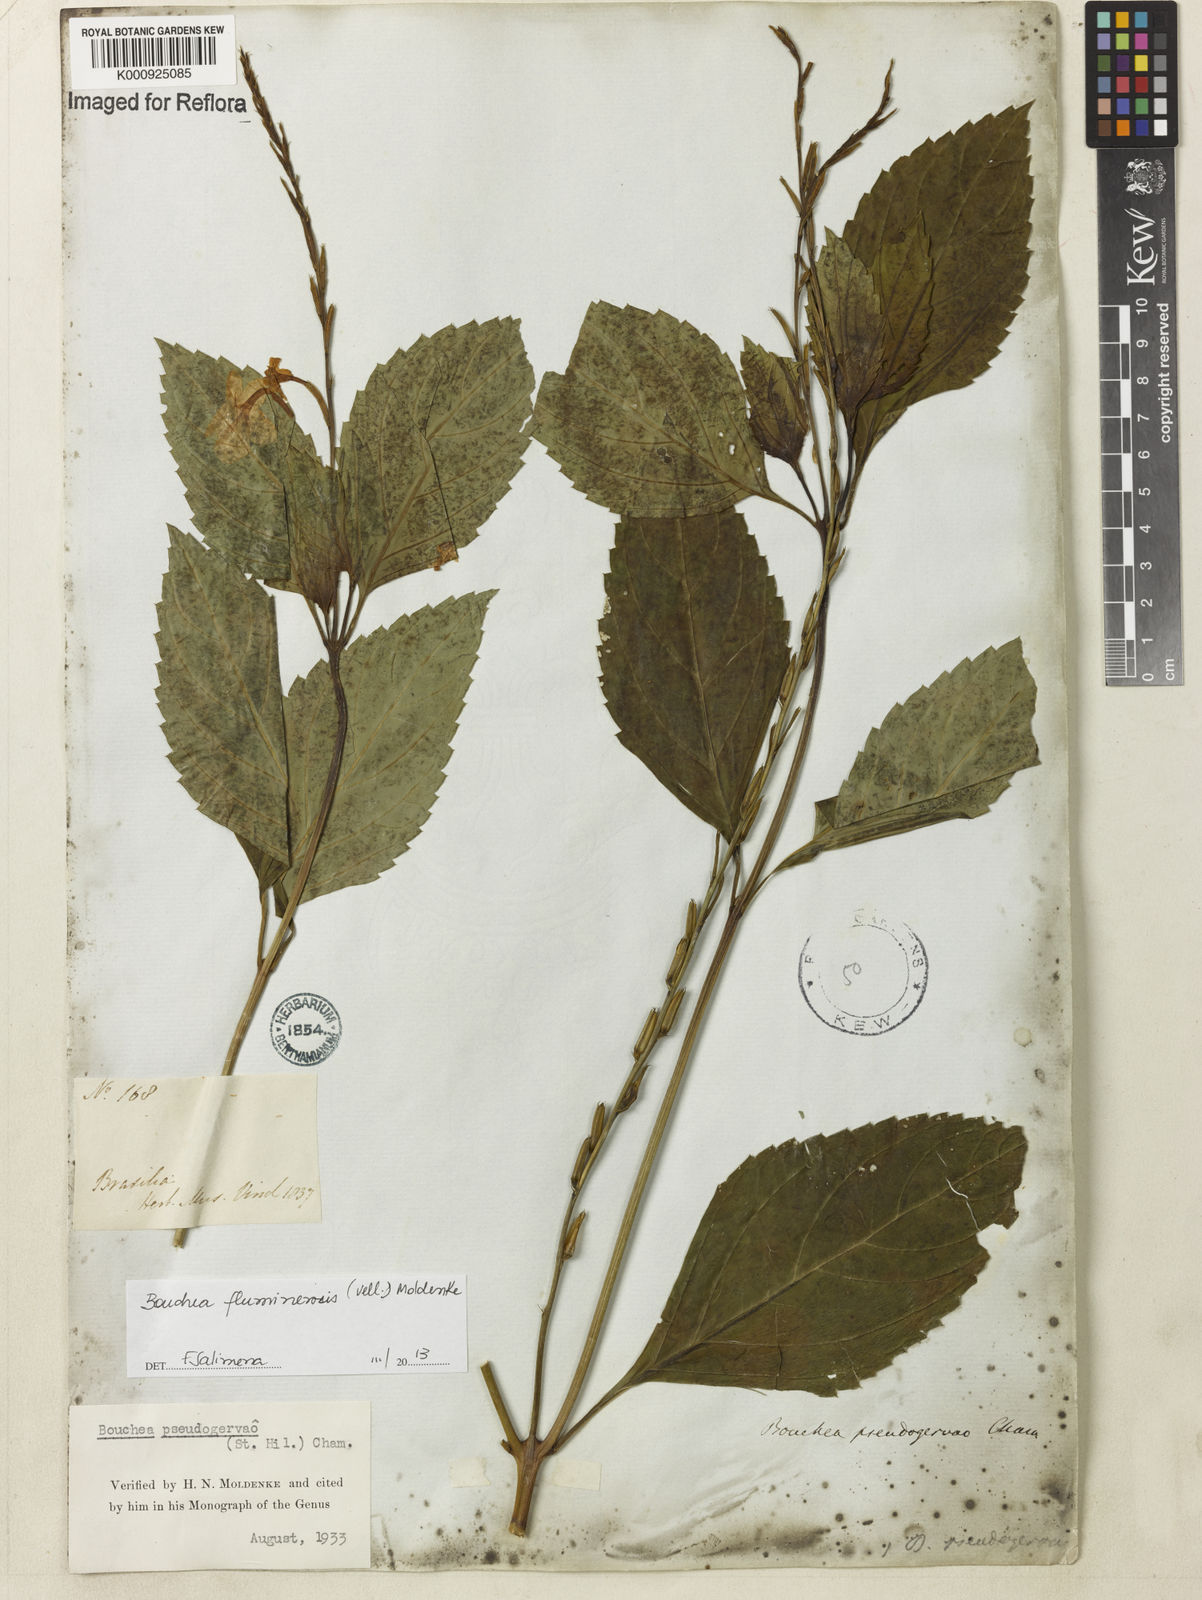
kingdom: Plantae
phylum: Tracheophyta
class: Magnoliopsida
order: Lamiales
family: Verbenaceae
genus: Bouchea
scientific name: Bouchea pseudogervao
